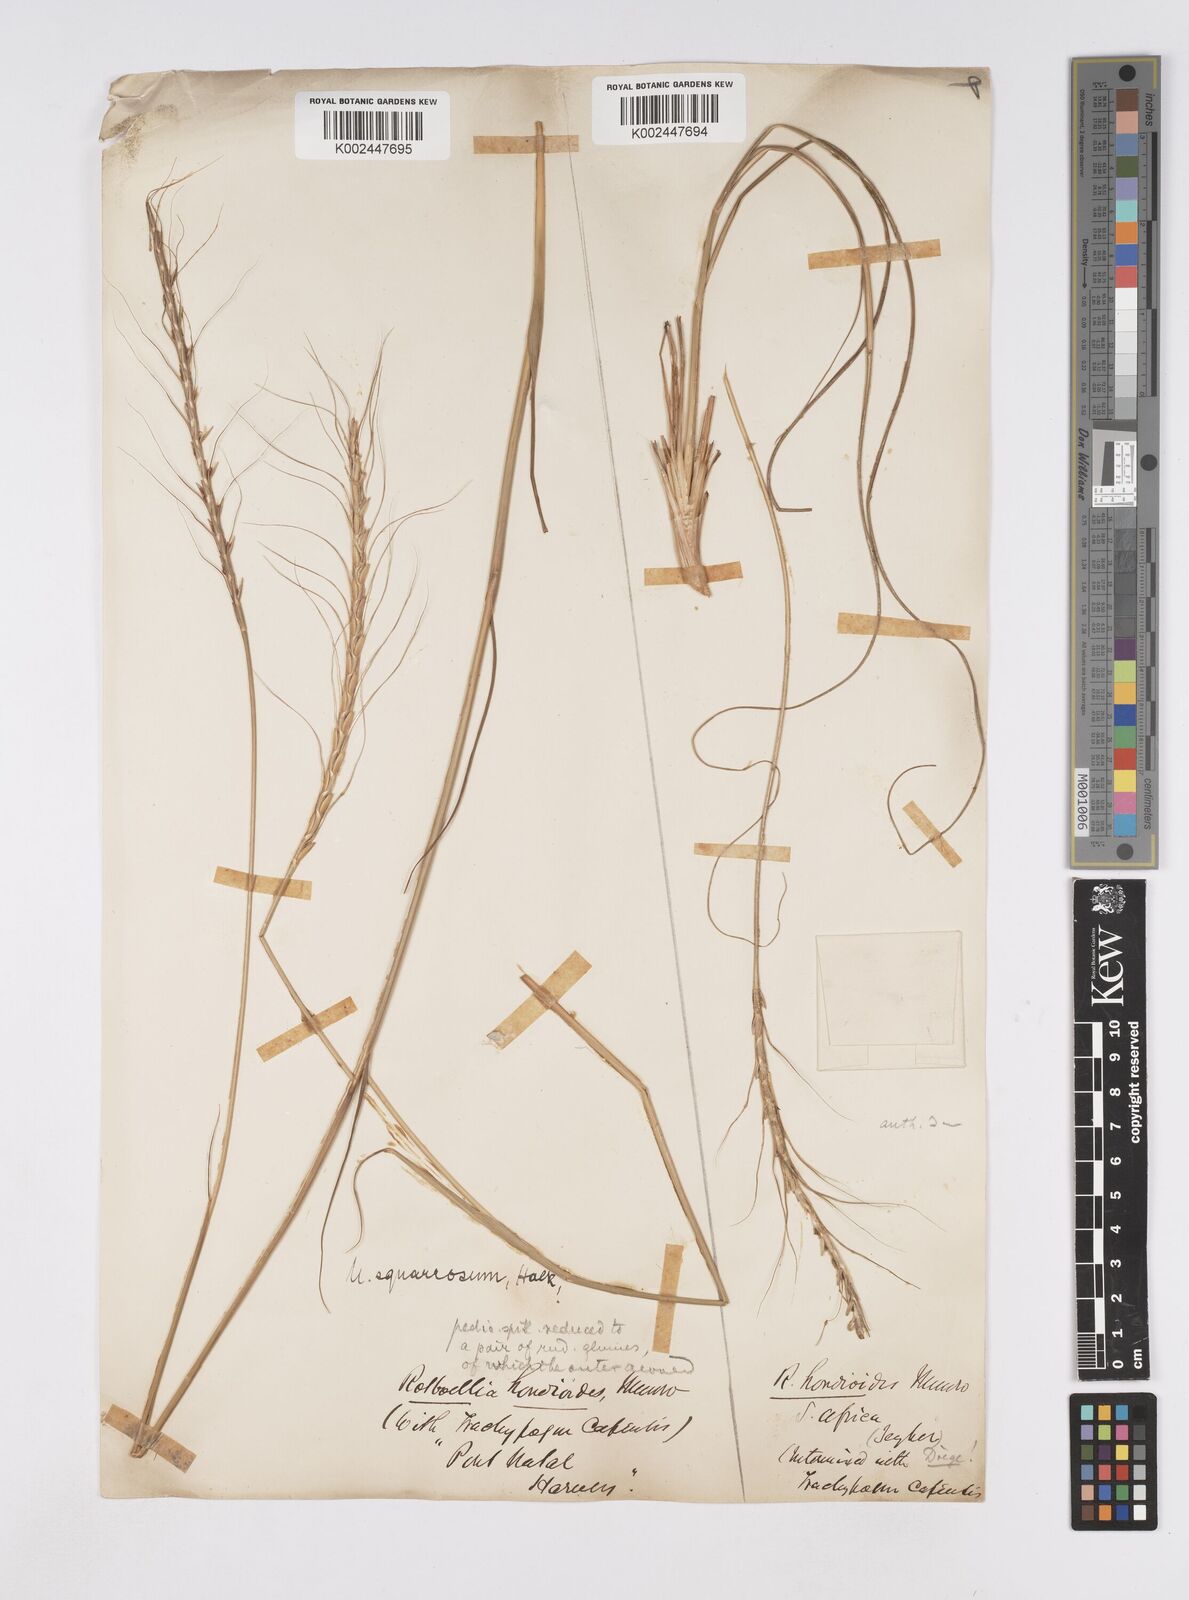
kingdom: Plantae
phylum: Tracheophyta
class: Liliopsida
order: Poales
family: Poaceae
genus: Urelytrum
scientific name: Urelytrum agropyroides
